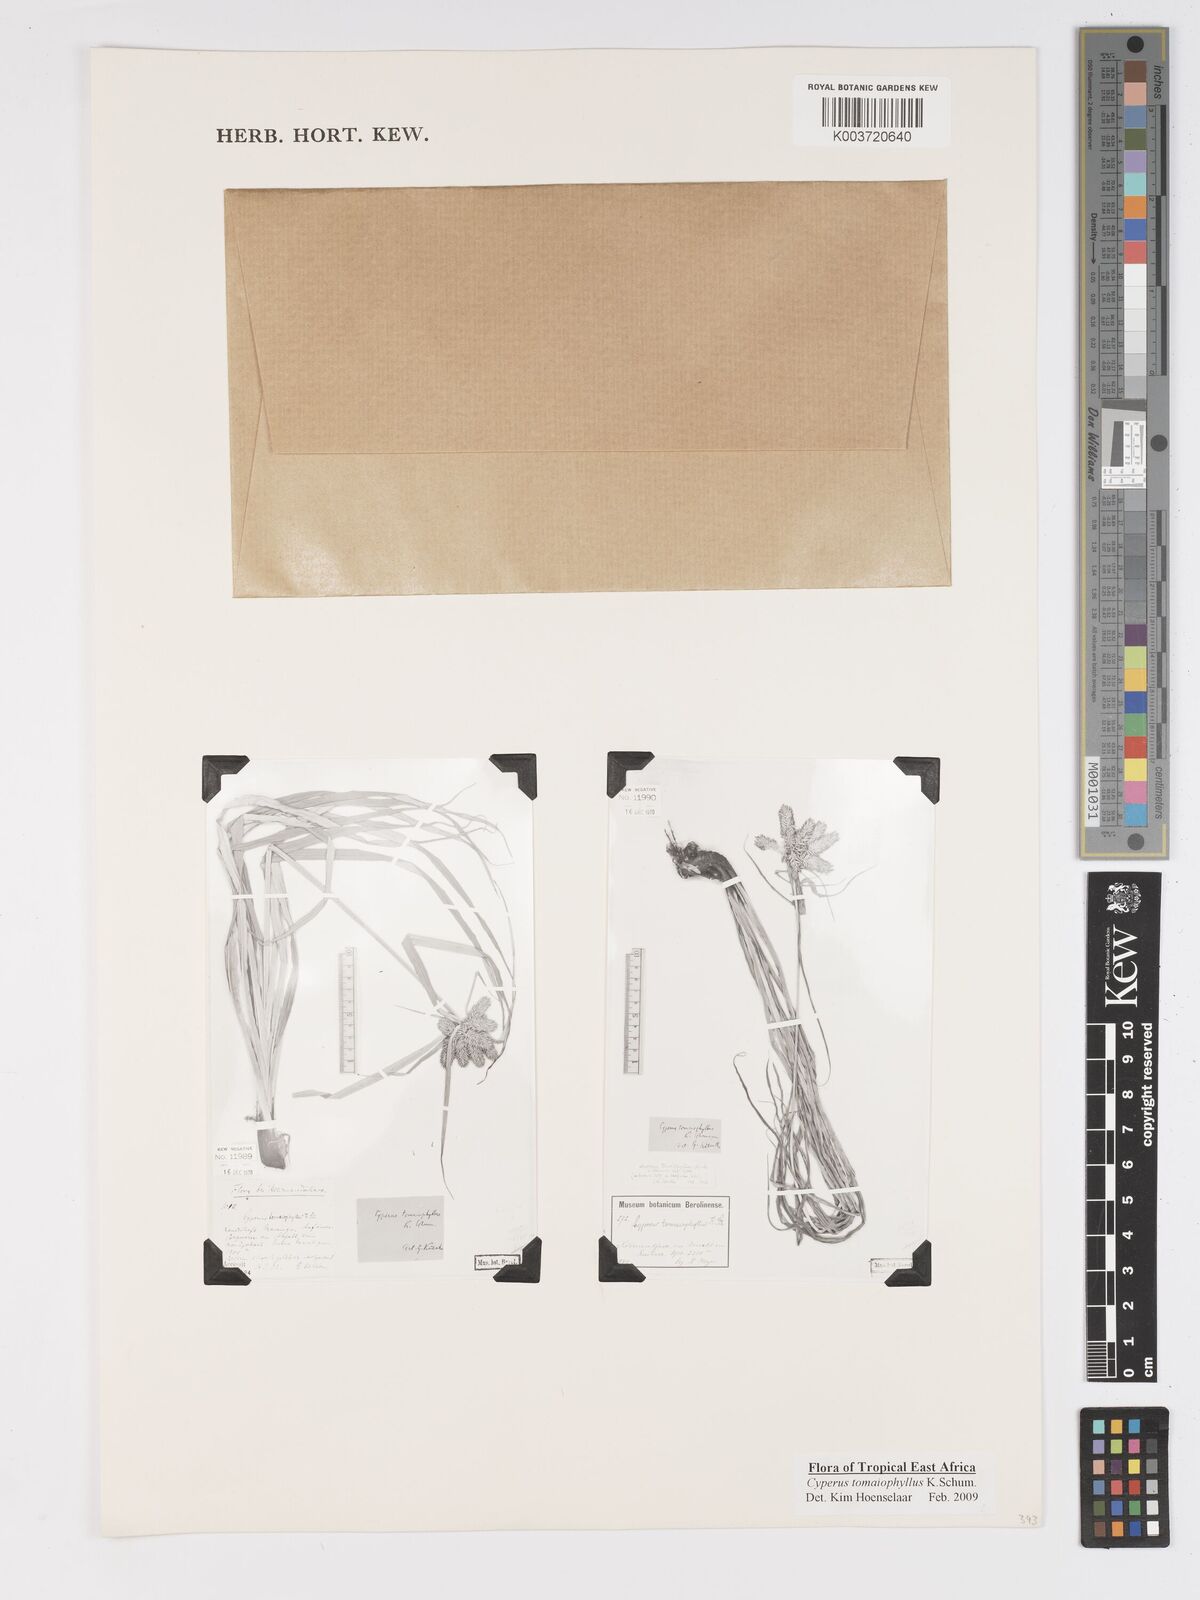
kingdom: Plantae
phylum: Tracheophyta
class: Liliopsida
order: Poales
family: Cyperaceae
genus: Cyperus
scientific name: Cyperus tomaiophyllus
